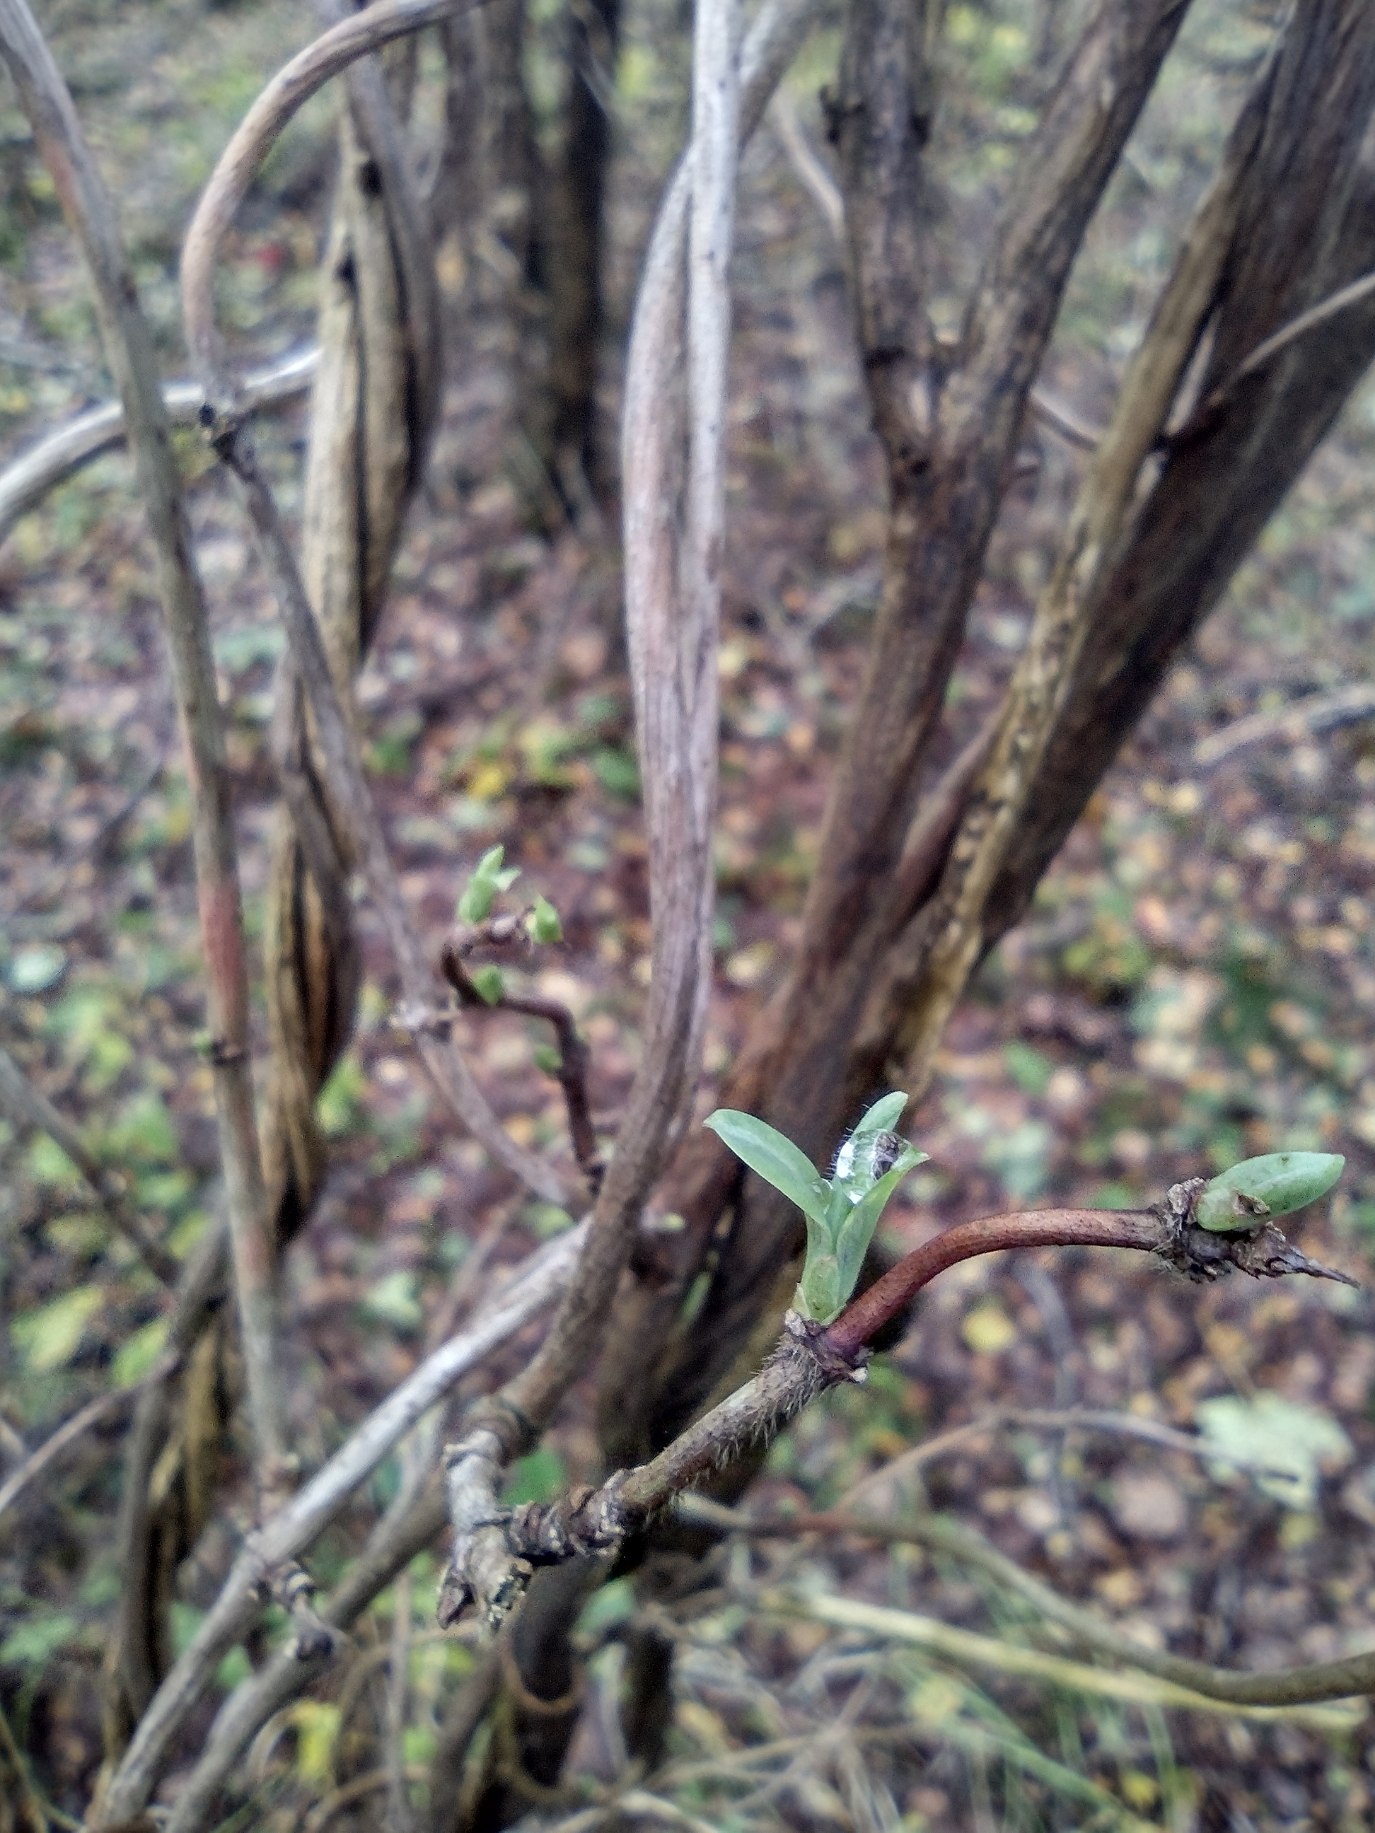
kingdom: Plantae
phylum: Tracheophyta
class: Magnoliopsida
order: Dipsacales
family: Caprifoliaceae
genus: Lonicera
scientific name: Lonicera periclymenum
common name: Almindelig gedeblad
